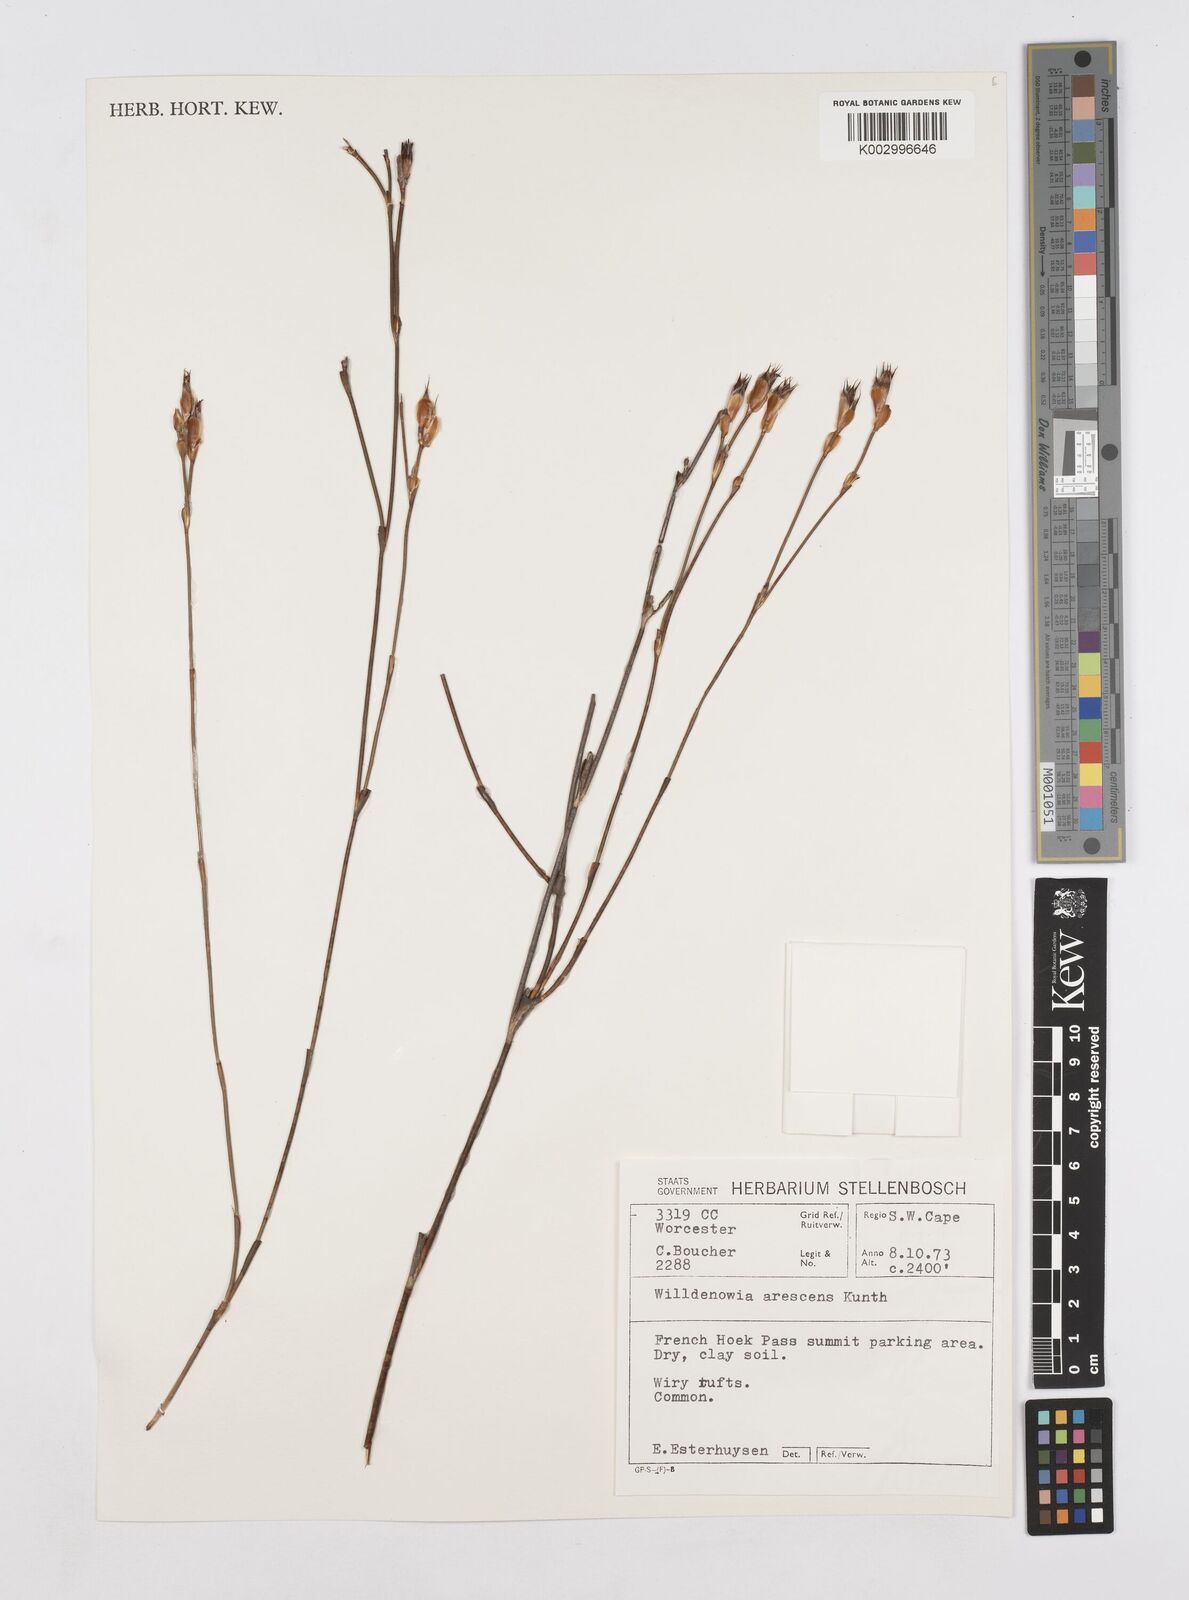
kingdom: Plantae
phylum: Tracheophyta
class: Liliopsida
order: Poales
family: Restionaceae
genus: Willdenowia
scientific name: Willdenowia arescens
